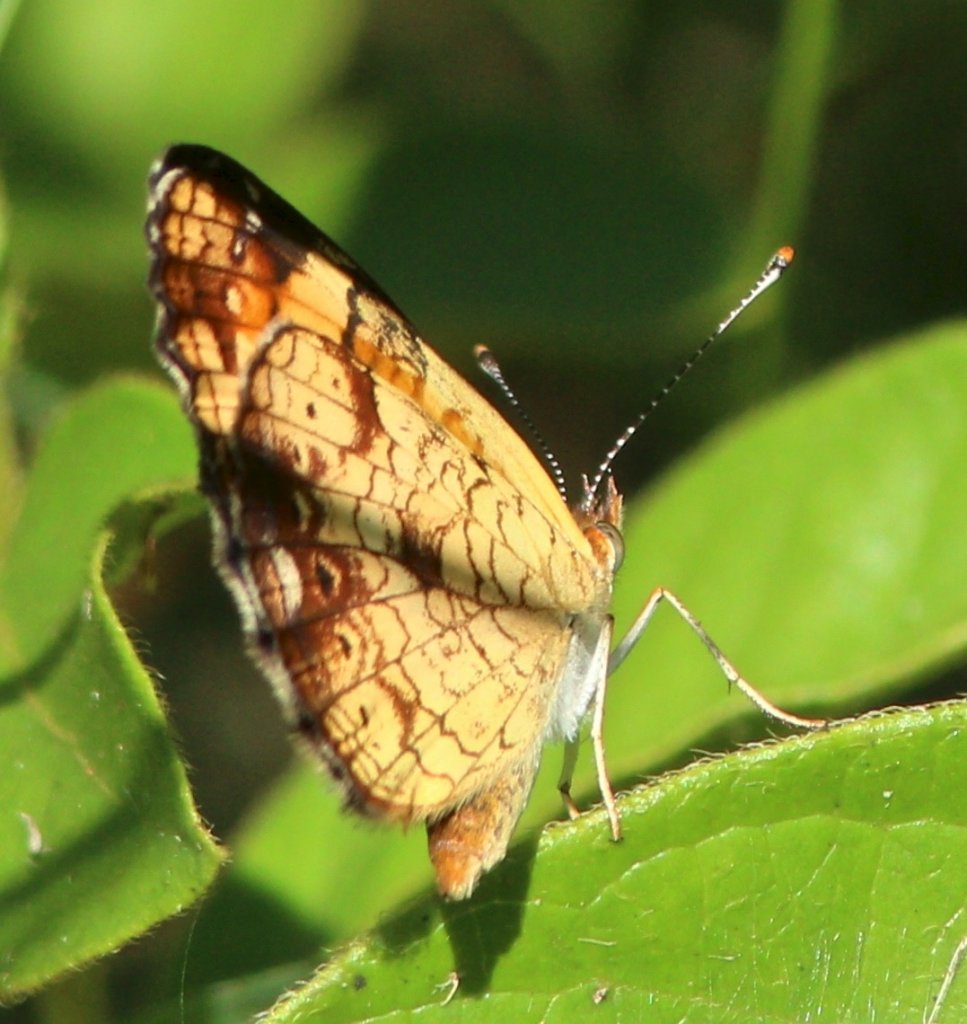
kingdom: Animalia
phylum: Arthropoda
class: Insecta
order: Lepidoptera
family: Nymphalidae
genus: Phyciodes
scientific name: Phyciodes tharos
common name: Pearl Crescent
